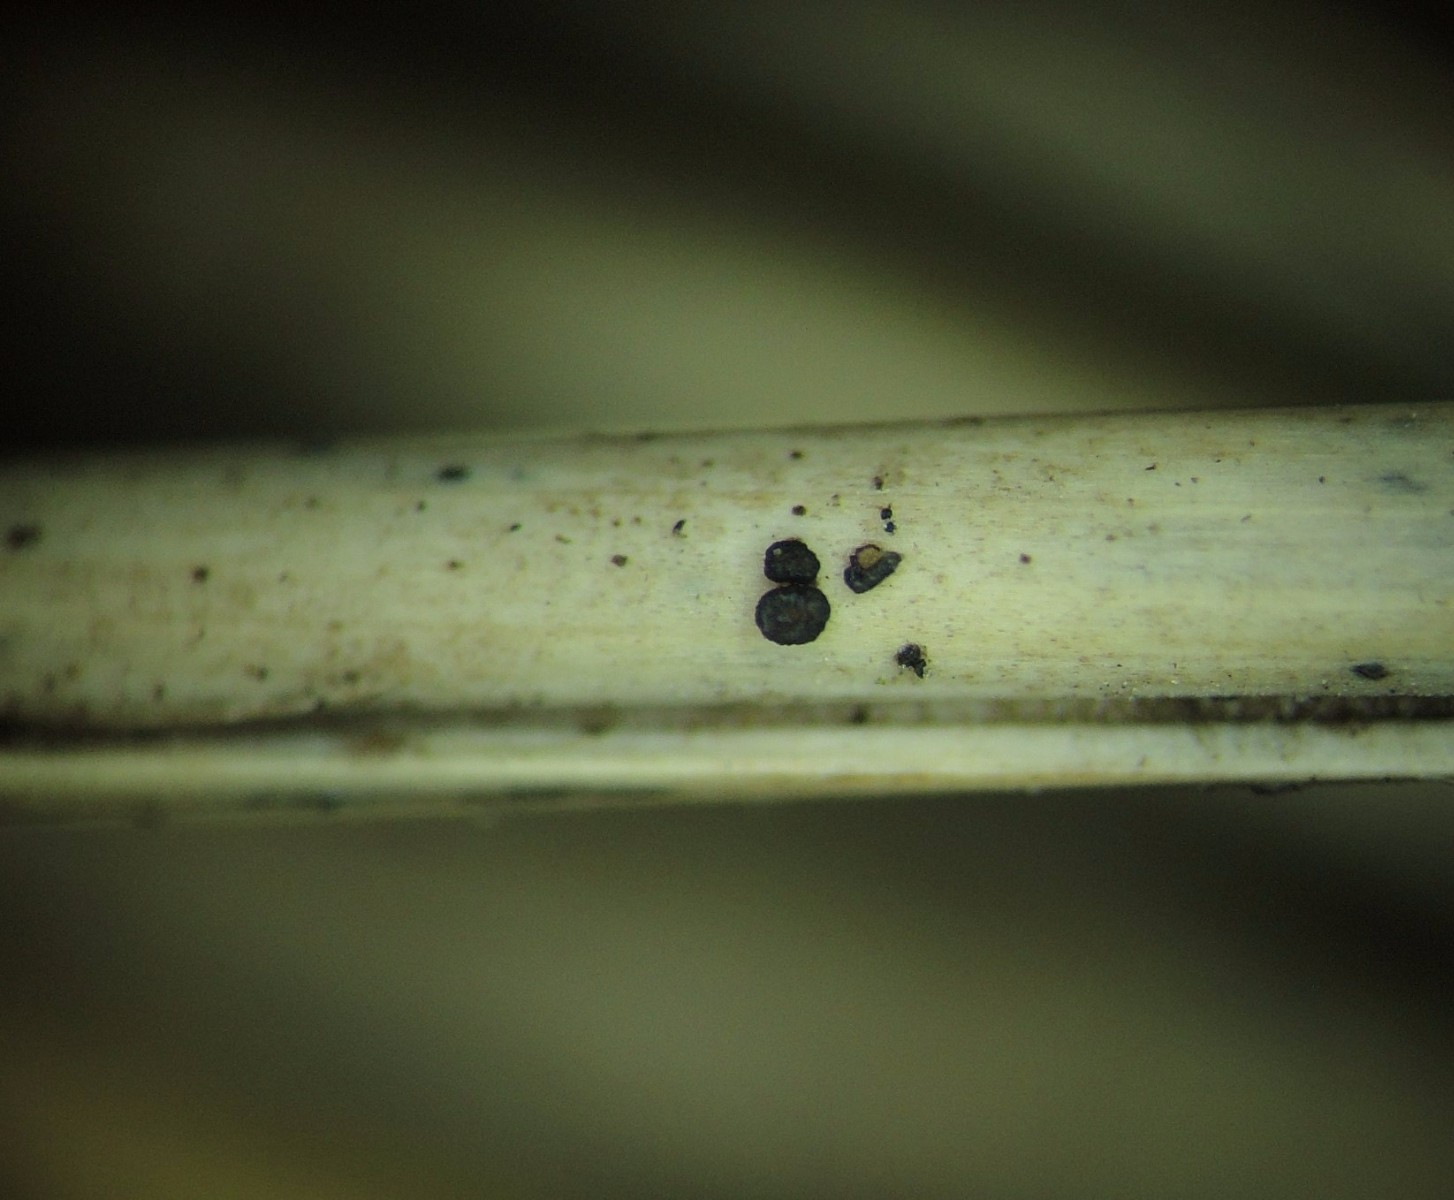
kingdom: Fungi
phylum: Ascomycota
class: Leotiomycetes
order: Helotiales
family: Ploettnerulaceae
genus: Belonium
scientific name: Belonium psammicola
